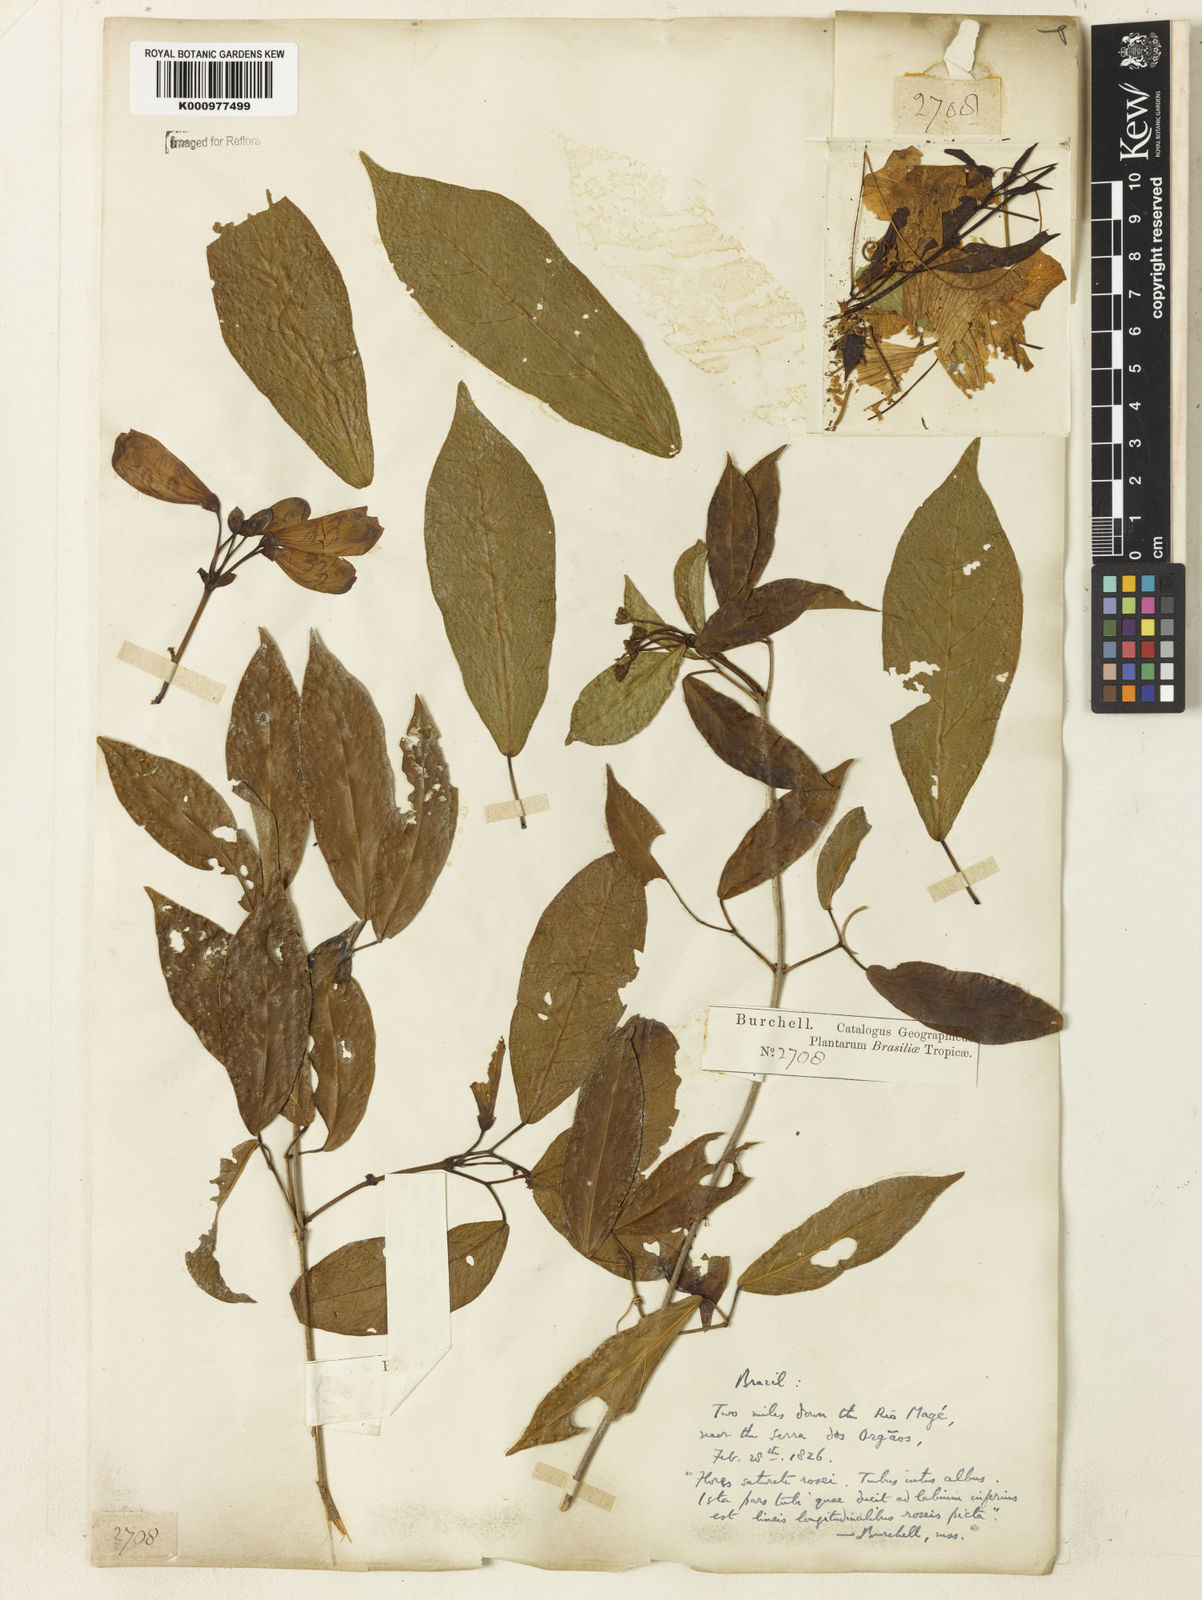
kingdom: Plantae
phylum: Tracheophyta
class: Magnoliopsida
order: Lamiales
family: Bignoniaceae
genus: Bignonia
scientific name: Bignonia binata
